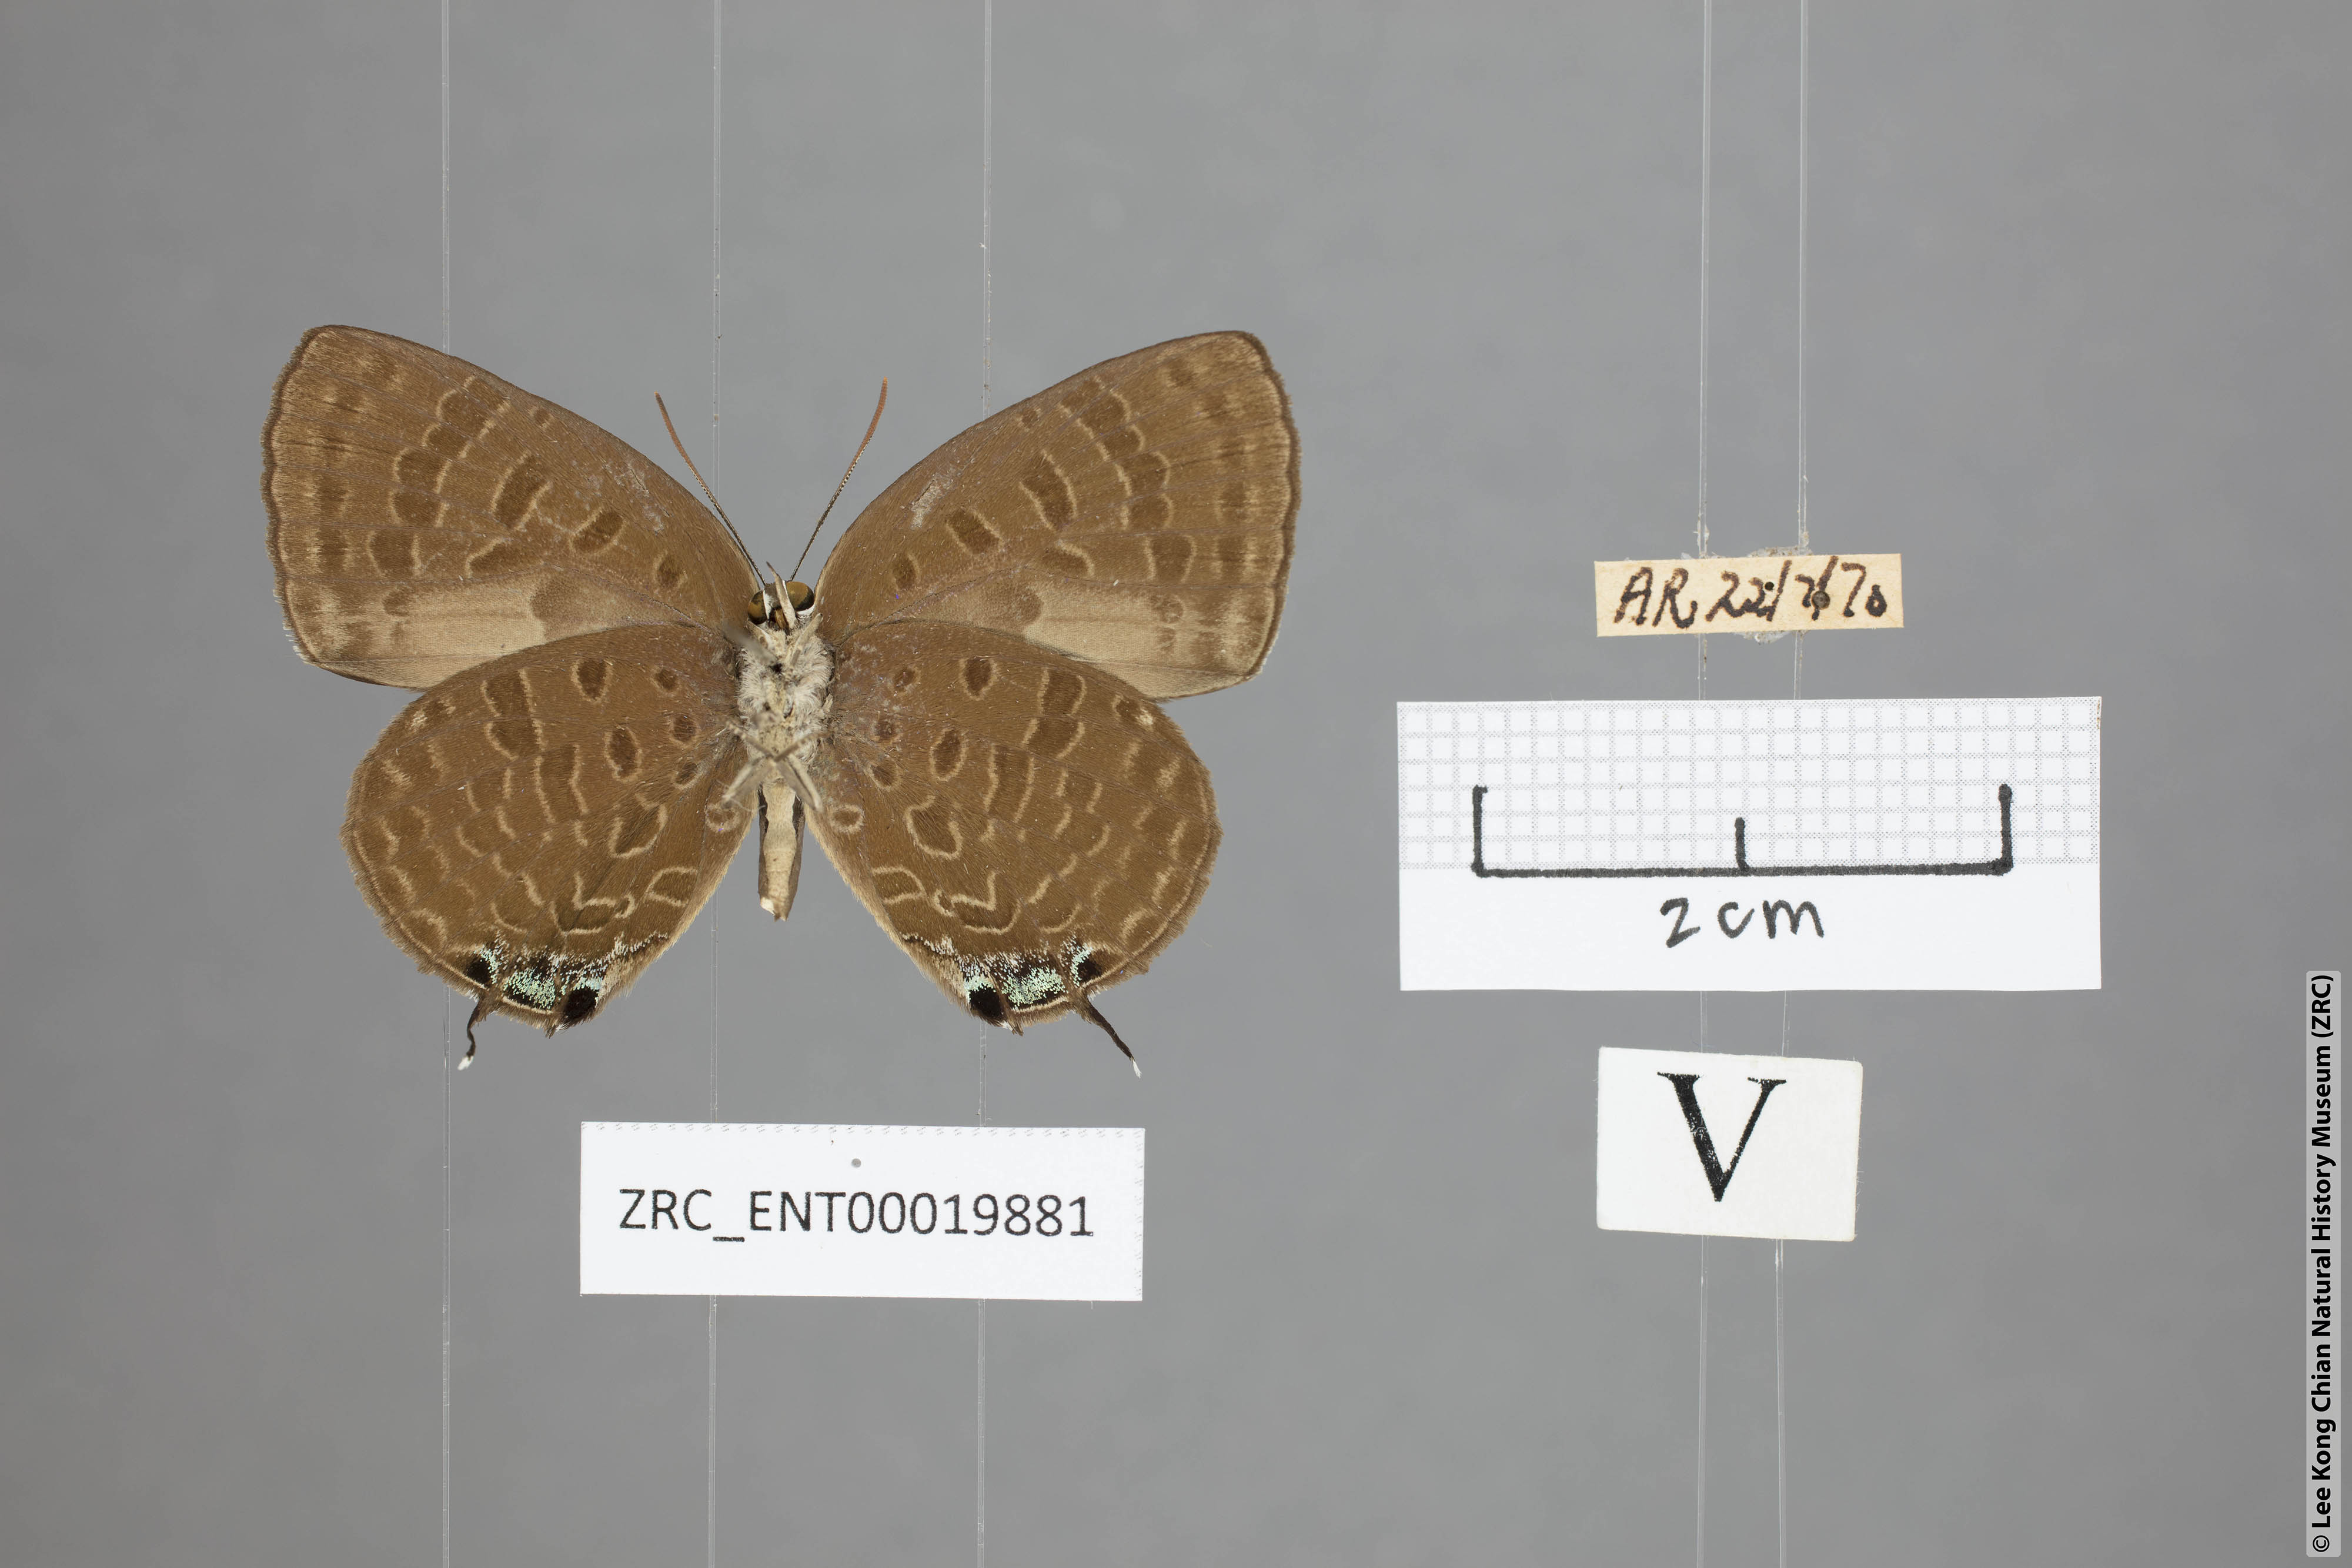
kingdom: Animalia
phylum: Arthropoda
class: Insecta
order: Lepidoptera
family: Lycaenidae
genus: Arhopala
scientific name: Arhopala sublustris
